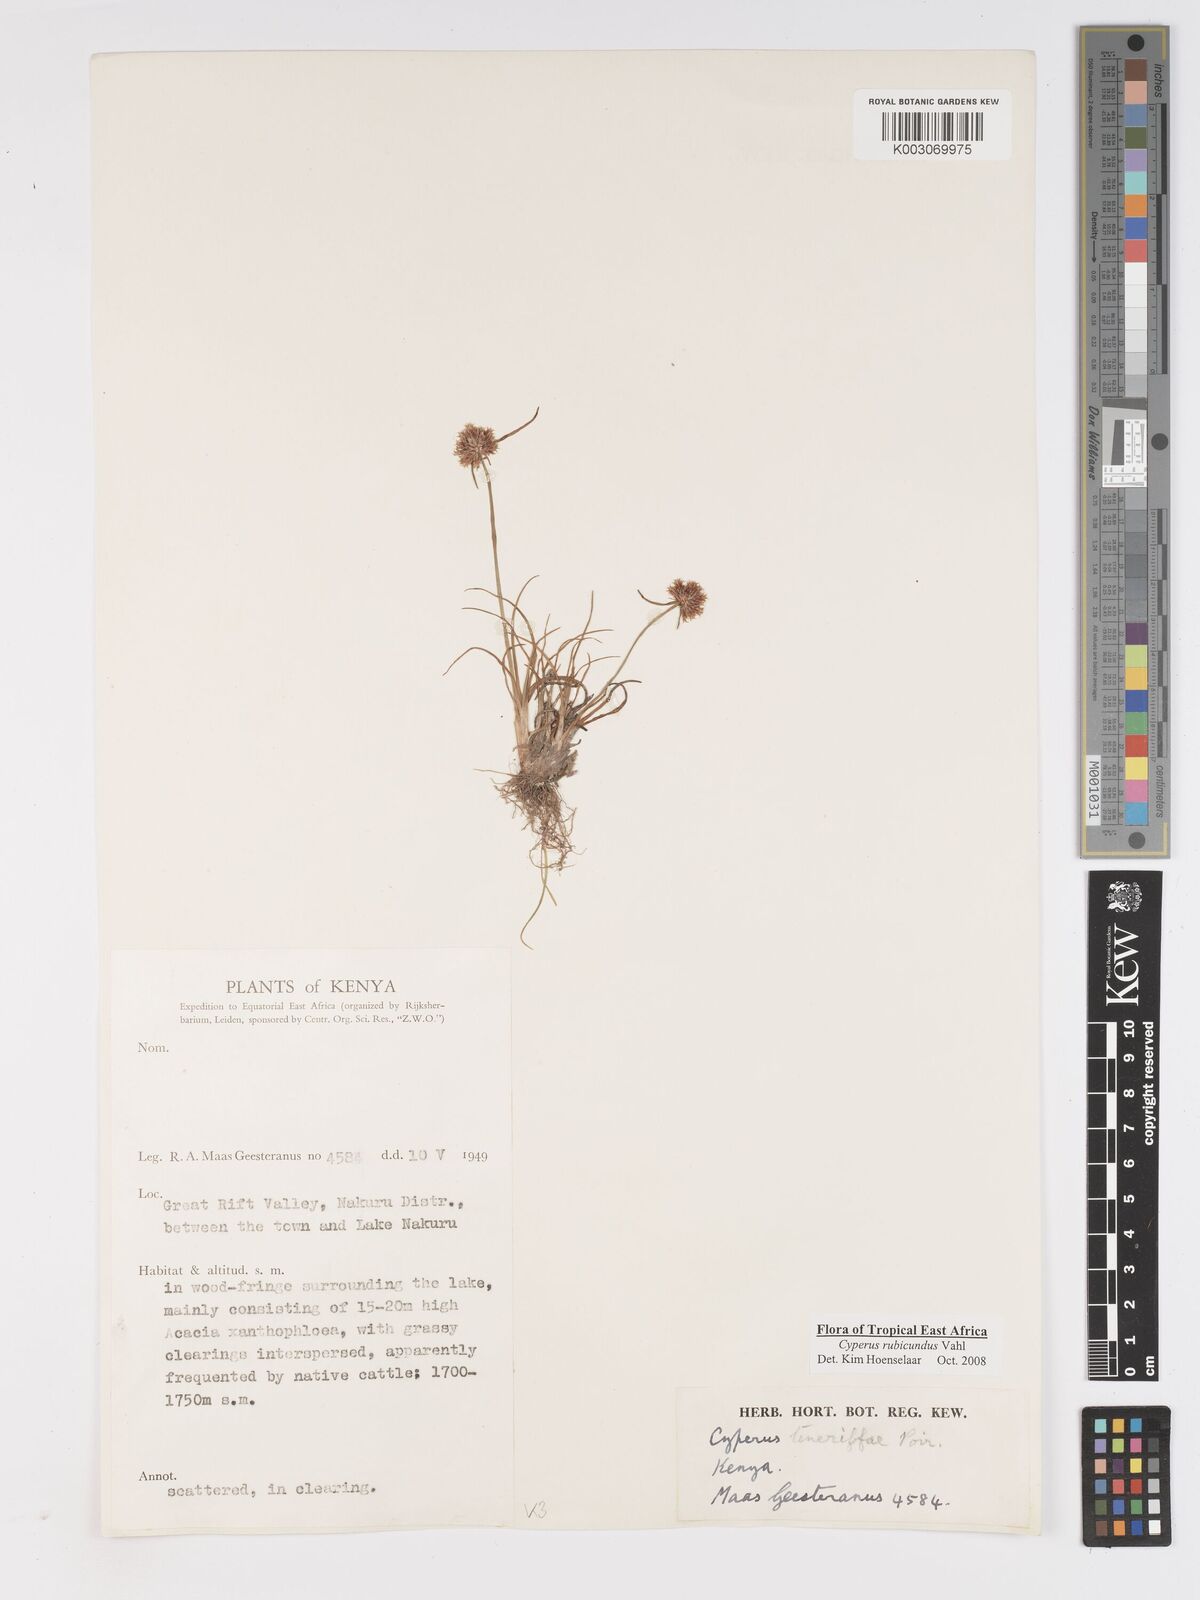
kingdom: Plantae
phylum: Tracheophyta
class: Liliopsida
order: Poales
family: Cyperaceae
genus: Cyperus
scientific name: Cyperus rubicundus
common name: Coco-grass
